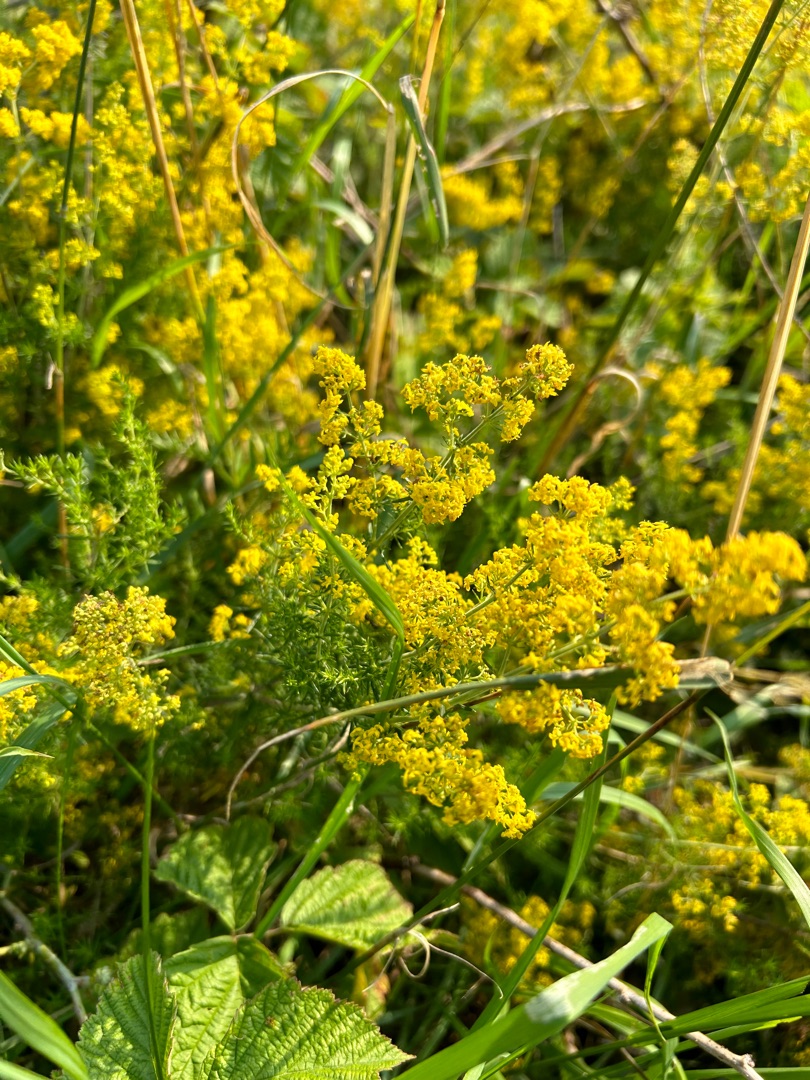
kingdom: Plantae
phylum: Tracheophyta
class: Magnoliopsida
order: Gentianales
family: Rubiaceae
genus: Galium
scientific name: Galium verum
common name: Gul snerre
